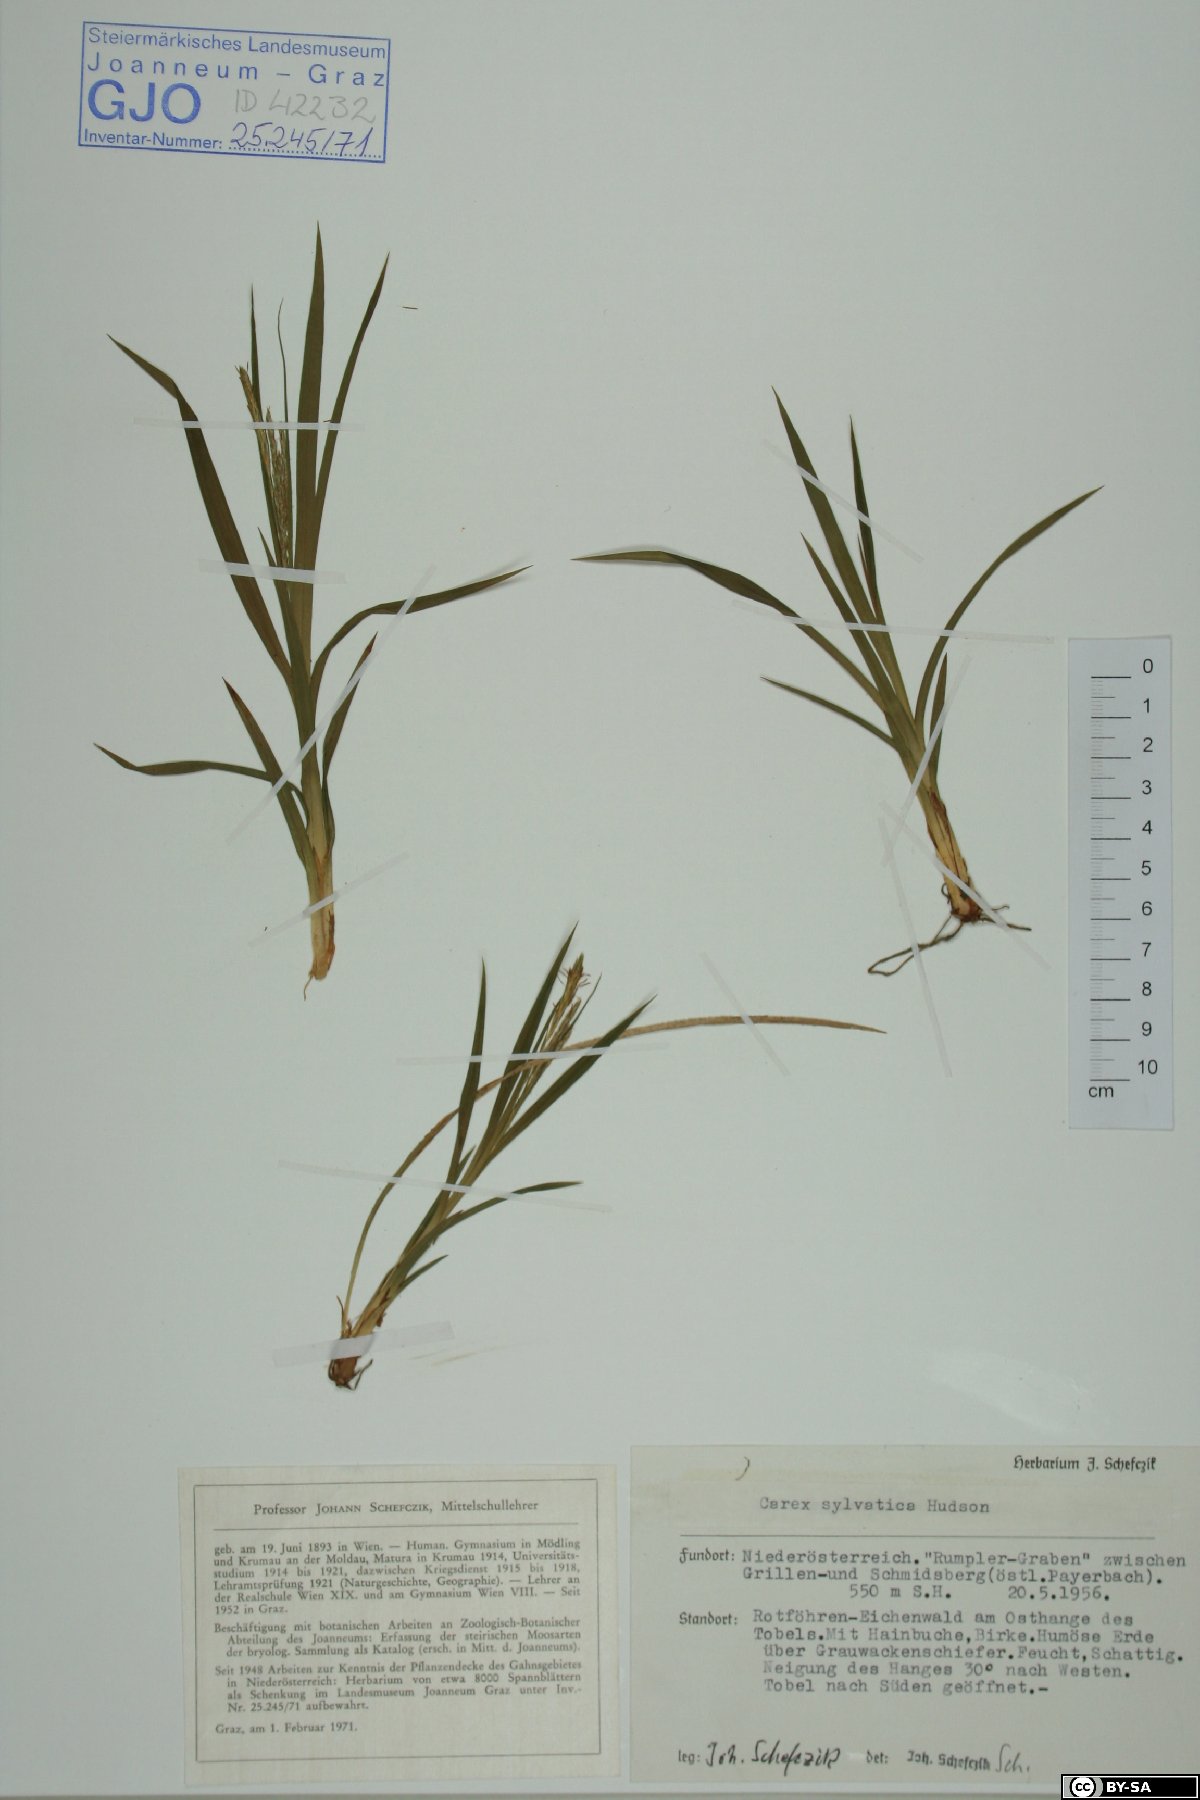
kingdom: Plantae
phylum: Tracheophyta
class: Liliopsida
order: Poales
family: Cyperaceae
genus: Carex
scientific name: Carex sylvatica
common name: Wood-sedge
